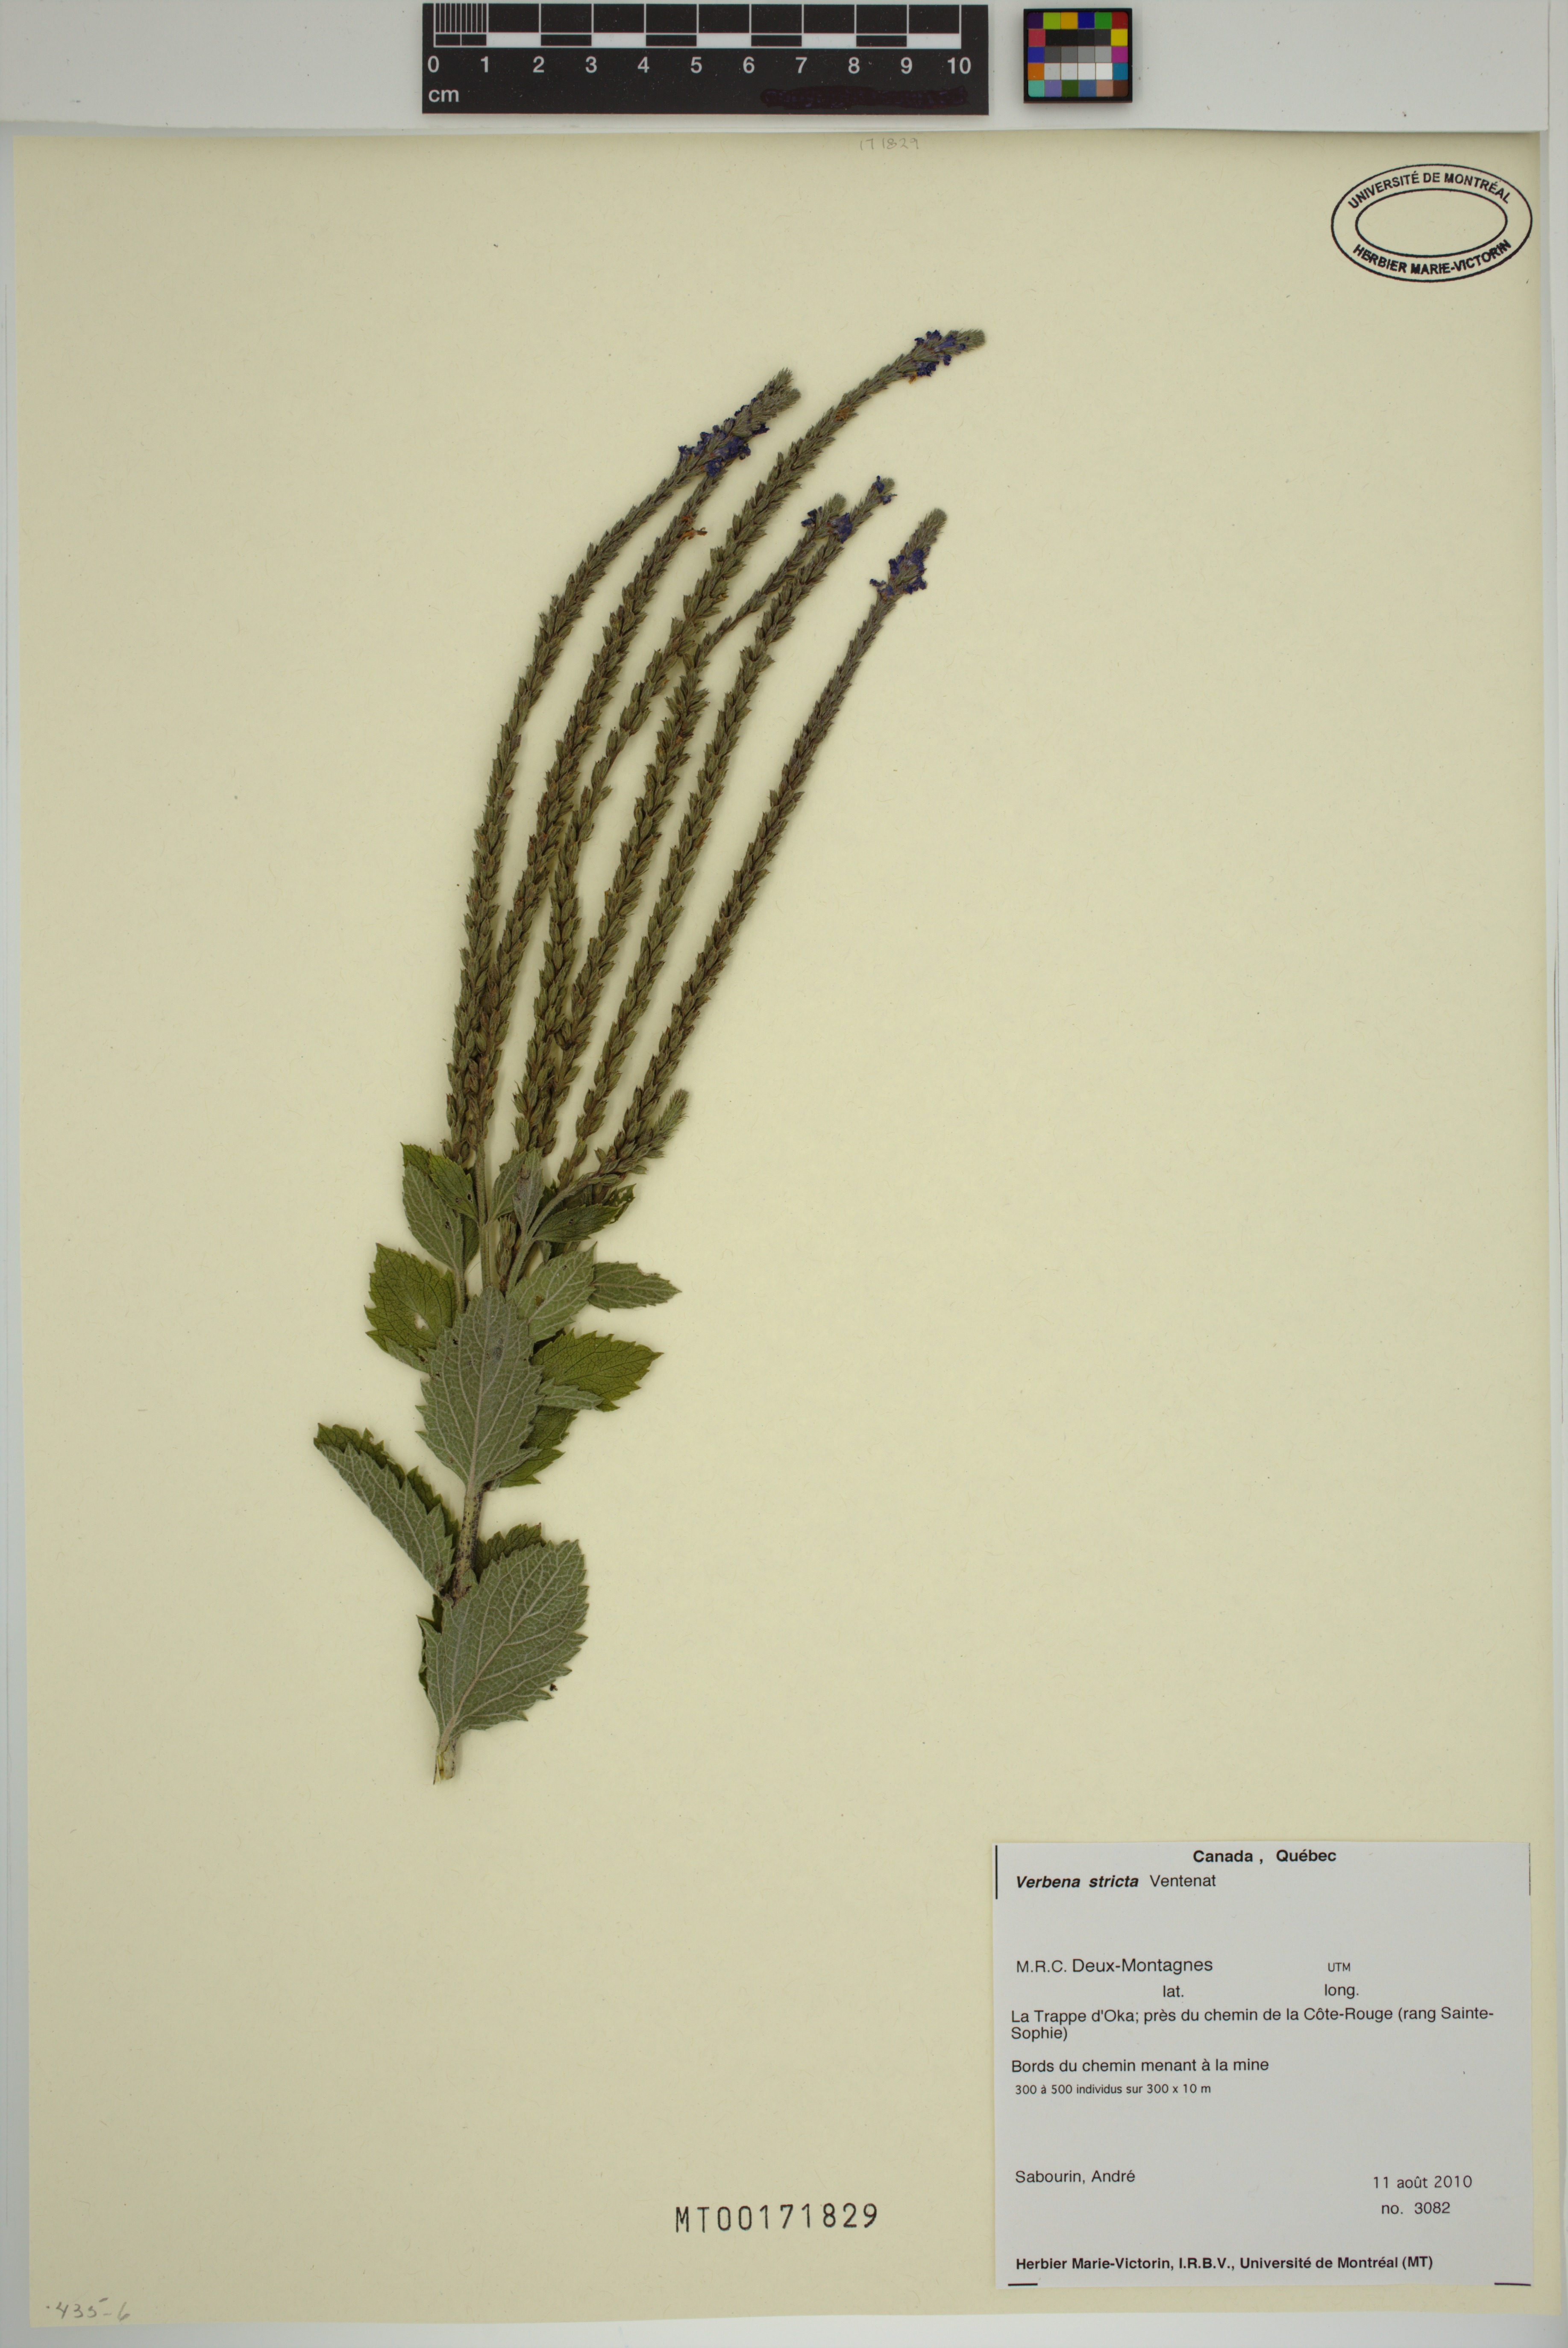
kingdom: Plantae
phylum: Tracheophyta
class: Magnoliopsida
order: Lamiales
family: Verbenaceae
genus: Verbena
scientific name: Verbena stricta
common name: Hoary vervain
